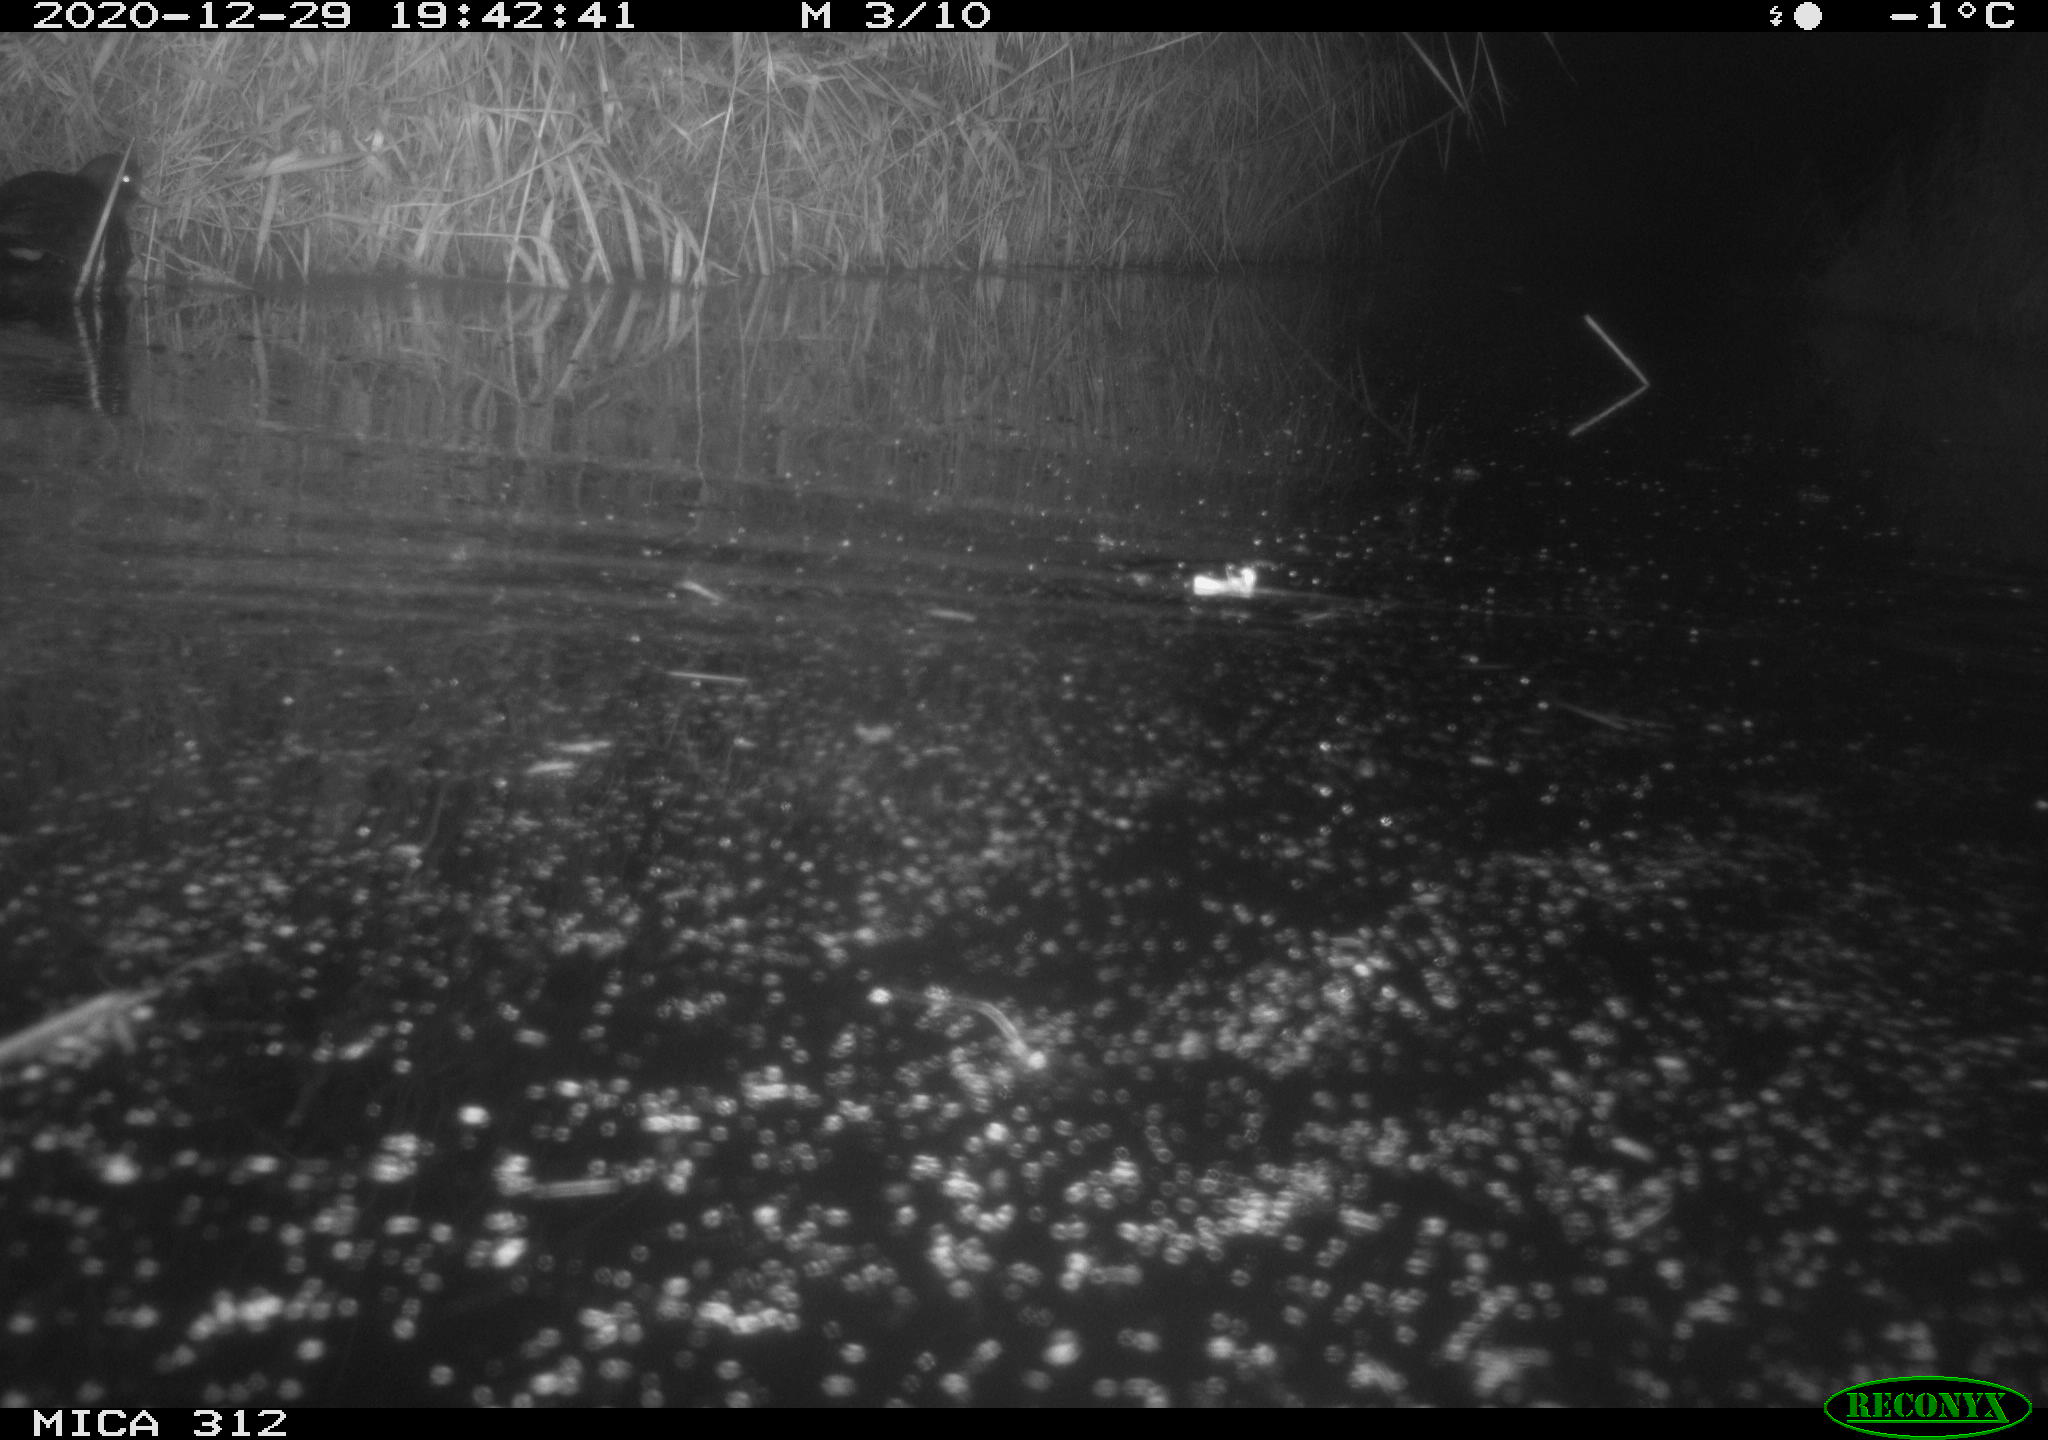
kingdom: Animalia
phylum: Chordata
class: Aves
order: Gruiformes
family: Rallidae
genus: Gallinula
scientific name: Gallinula chloropus
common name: Common moorhen
